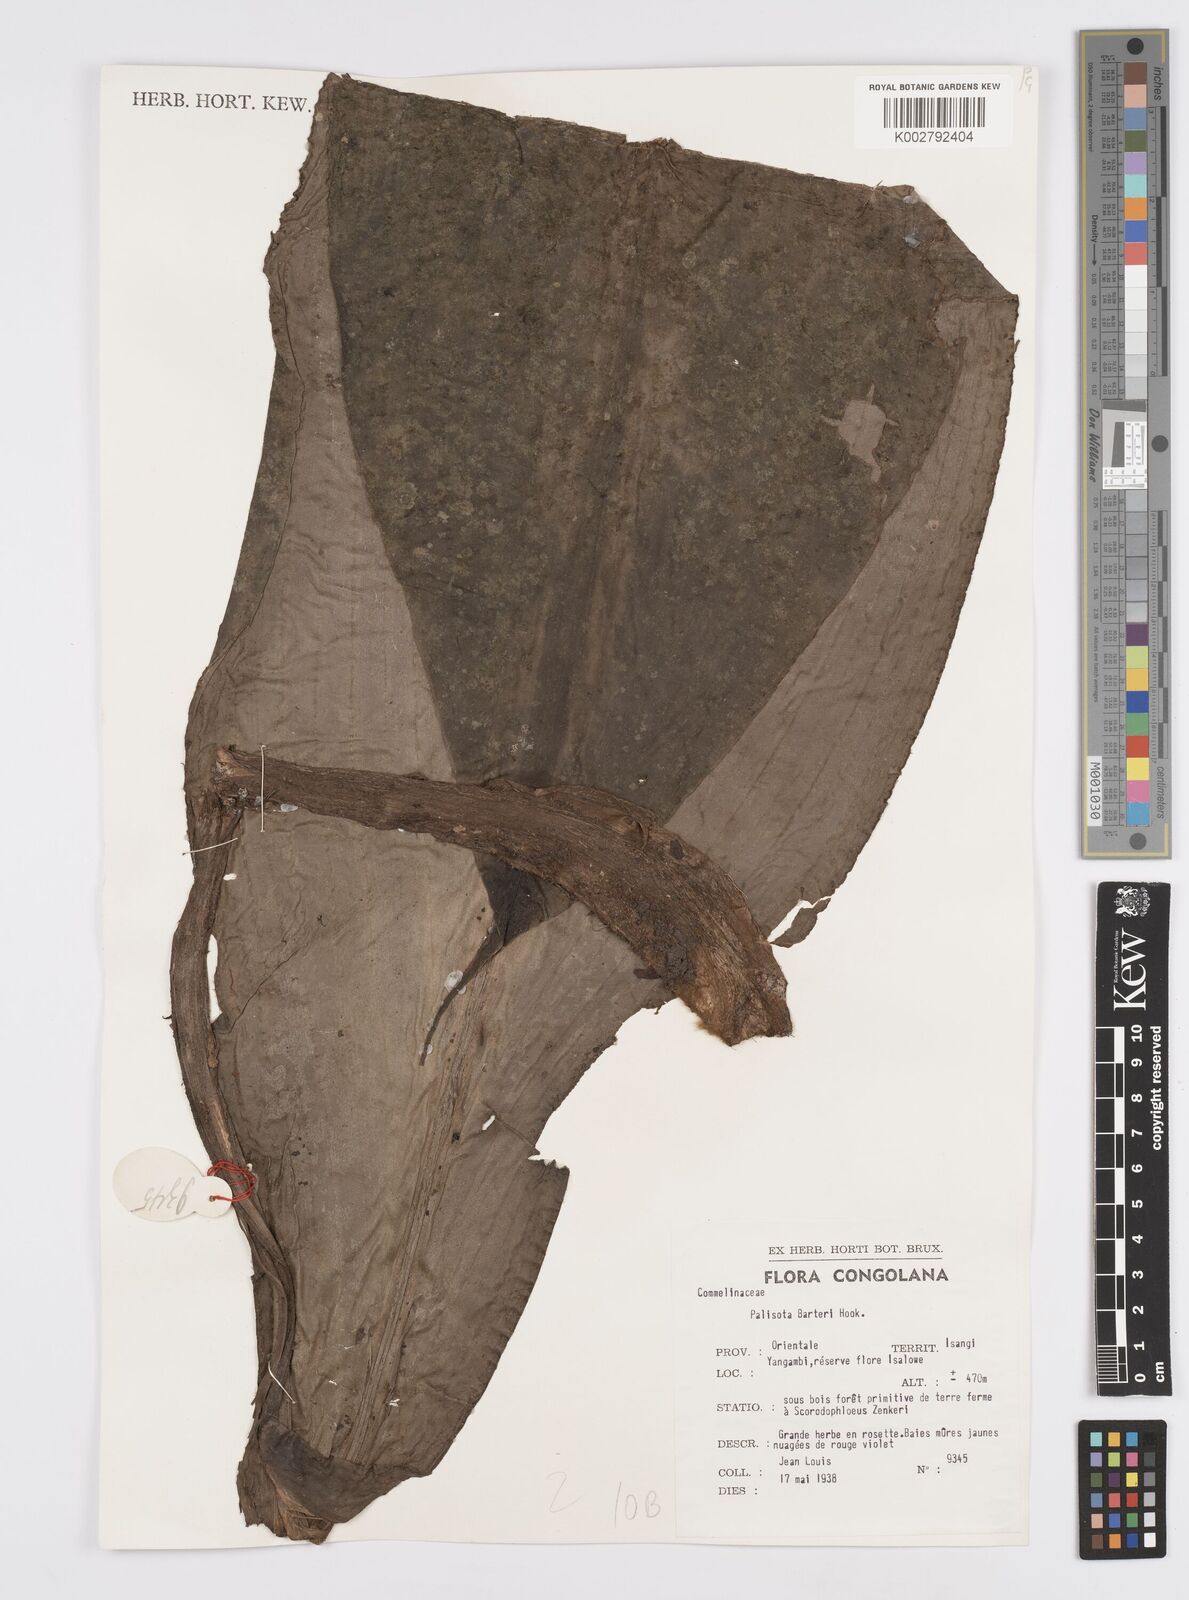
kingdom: Plantae
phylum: Tracheophyta
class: Liliopsida
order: Commelinales
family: Commelinaceae
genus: Palisota
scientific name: Palisota barteri
